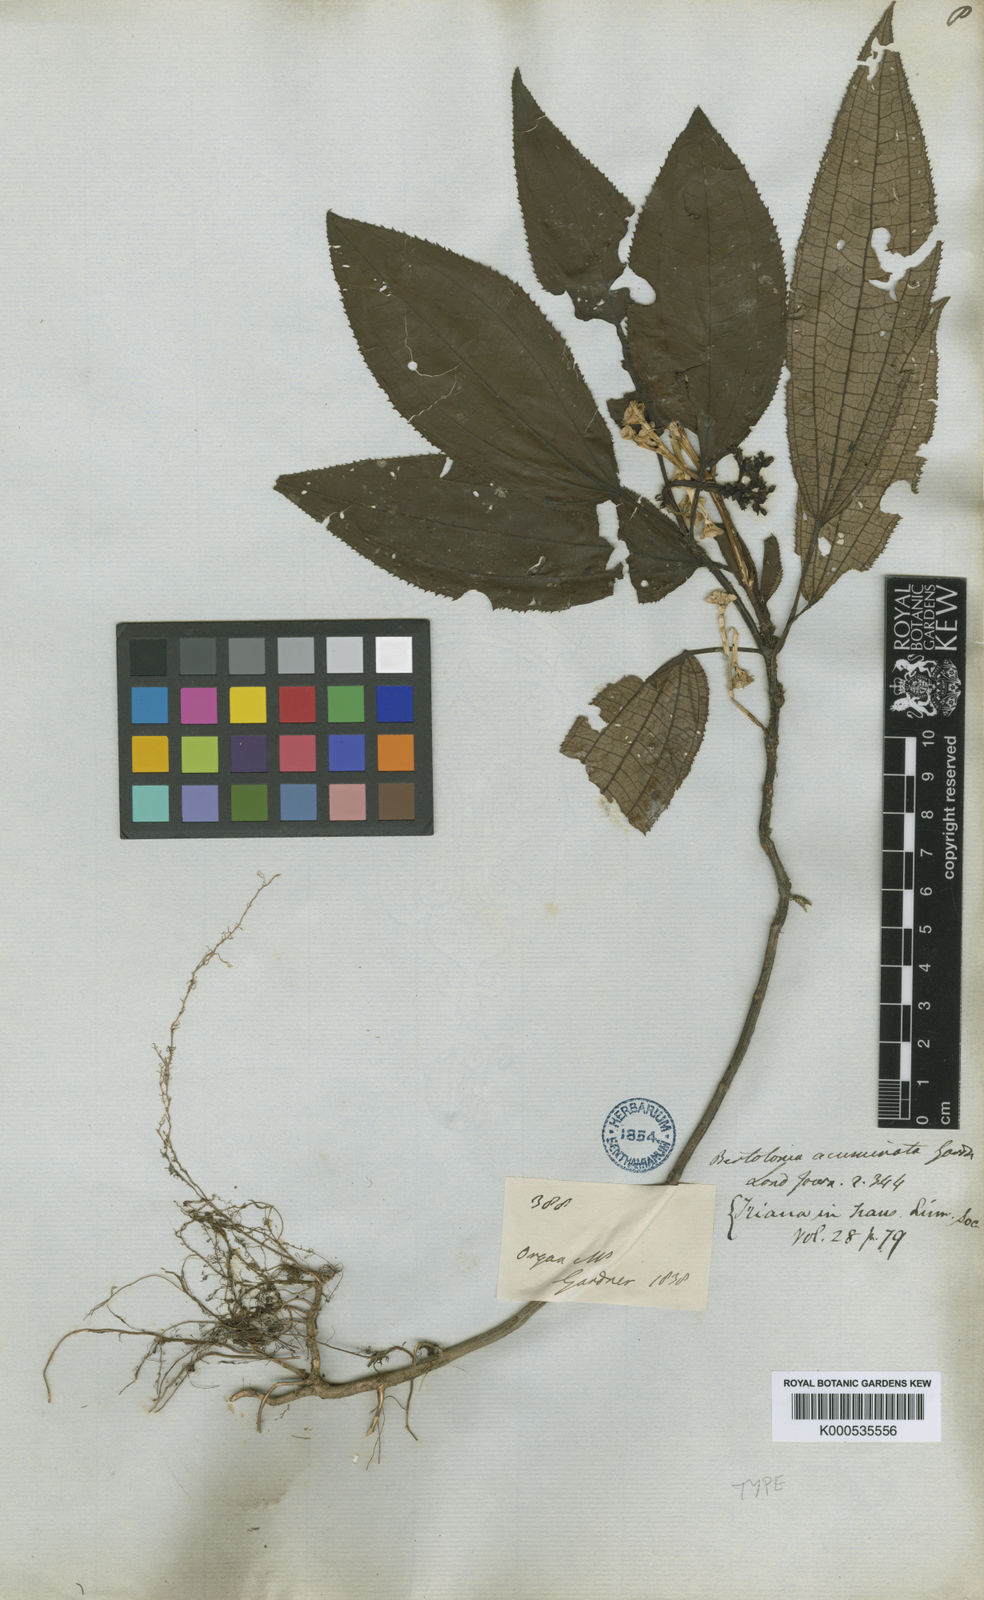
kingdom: Plantae
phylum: Tracheophyta
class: Magnoliopsida
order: Myrtales
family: Melastomataceae
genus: Bertolonia
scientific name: Bertolonia acuminata
